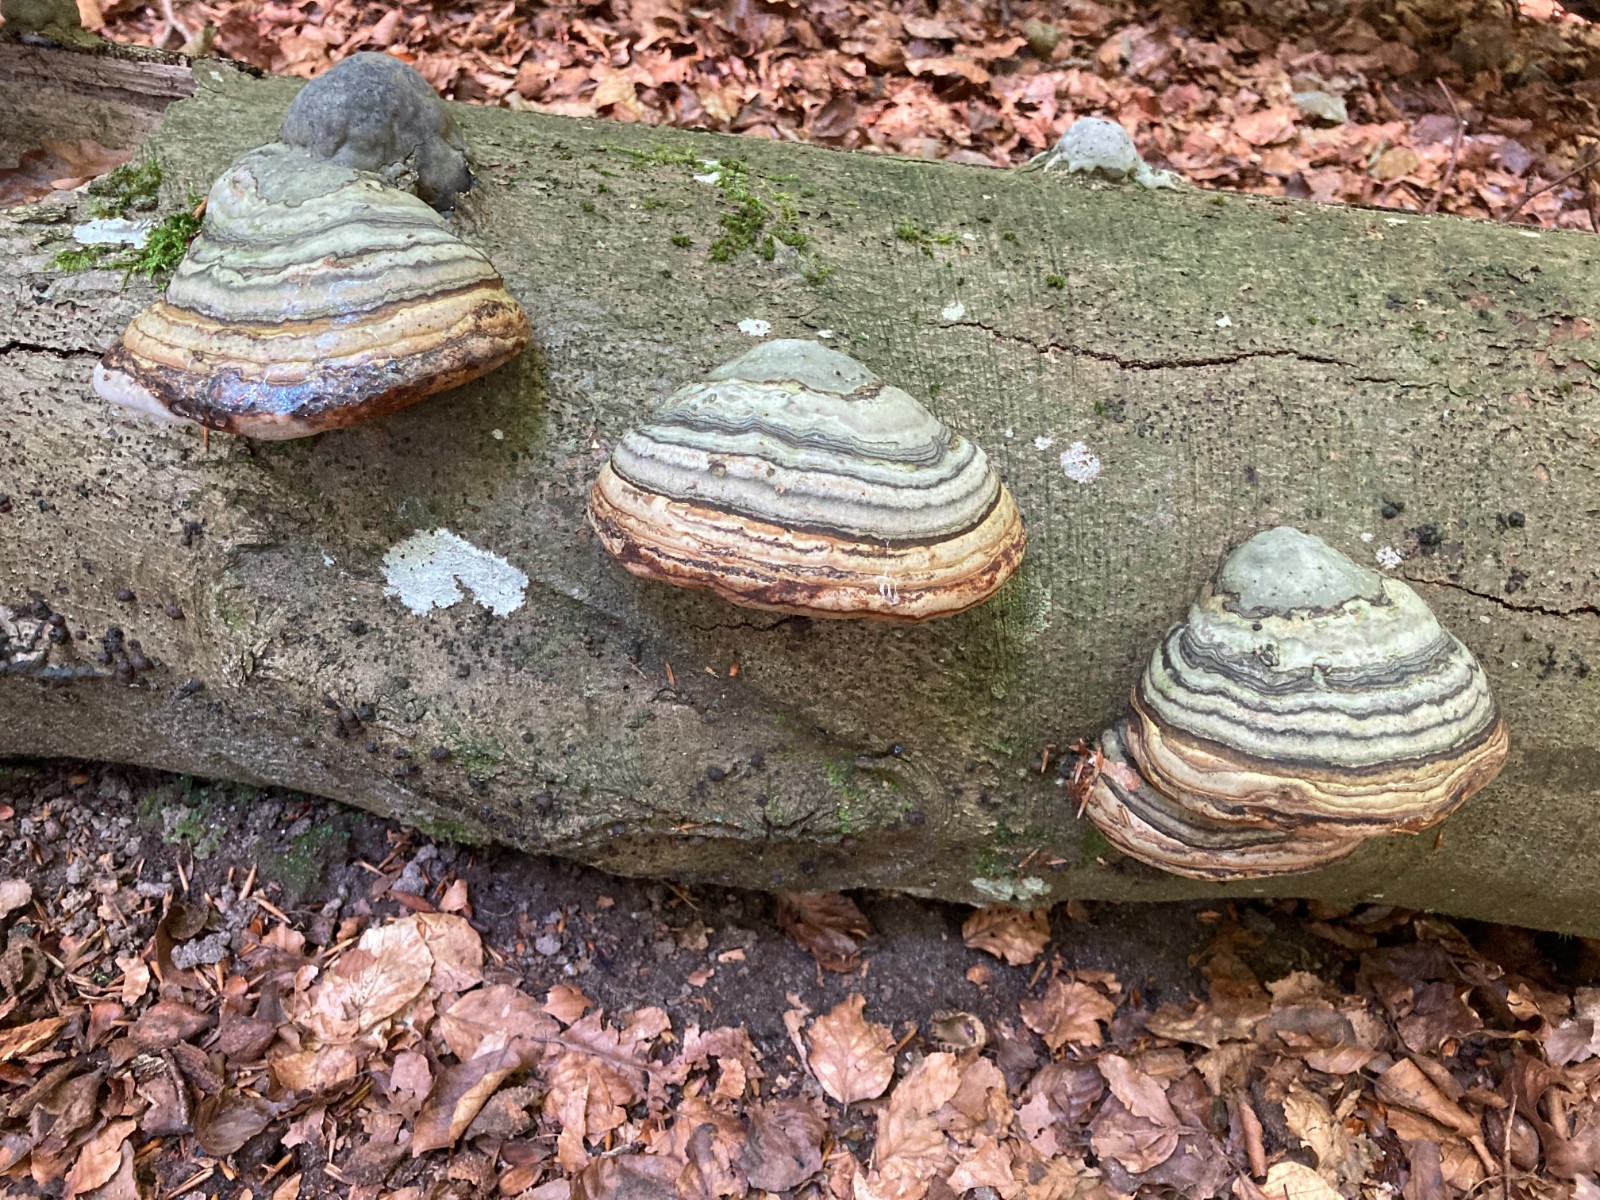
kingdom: Fungi
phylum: Basidiomycota
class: Agaricomycetes
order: Polyporales
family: Polyporaceae
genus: Fomes
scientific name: Fomes fomentarius
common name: tøndersvamp
